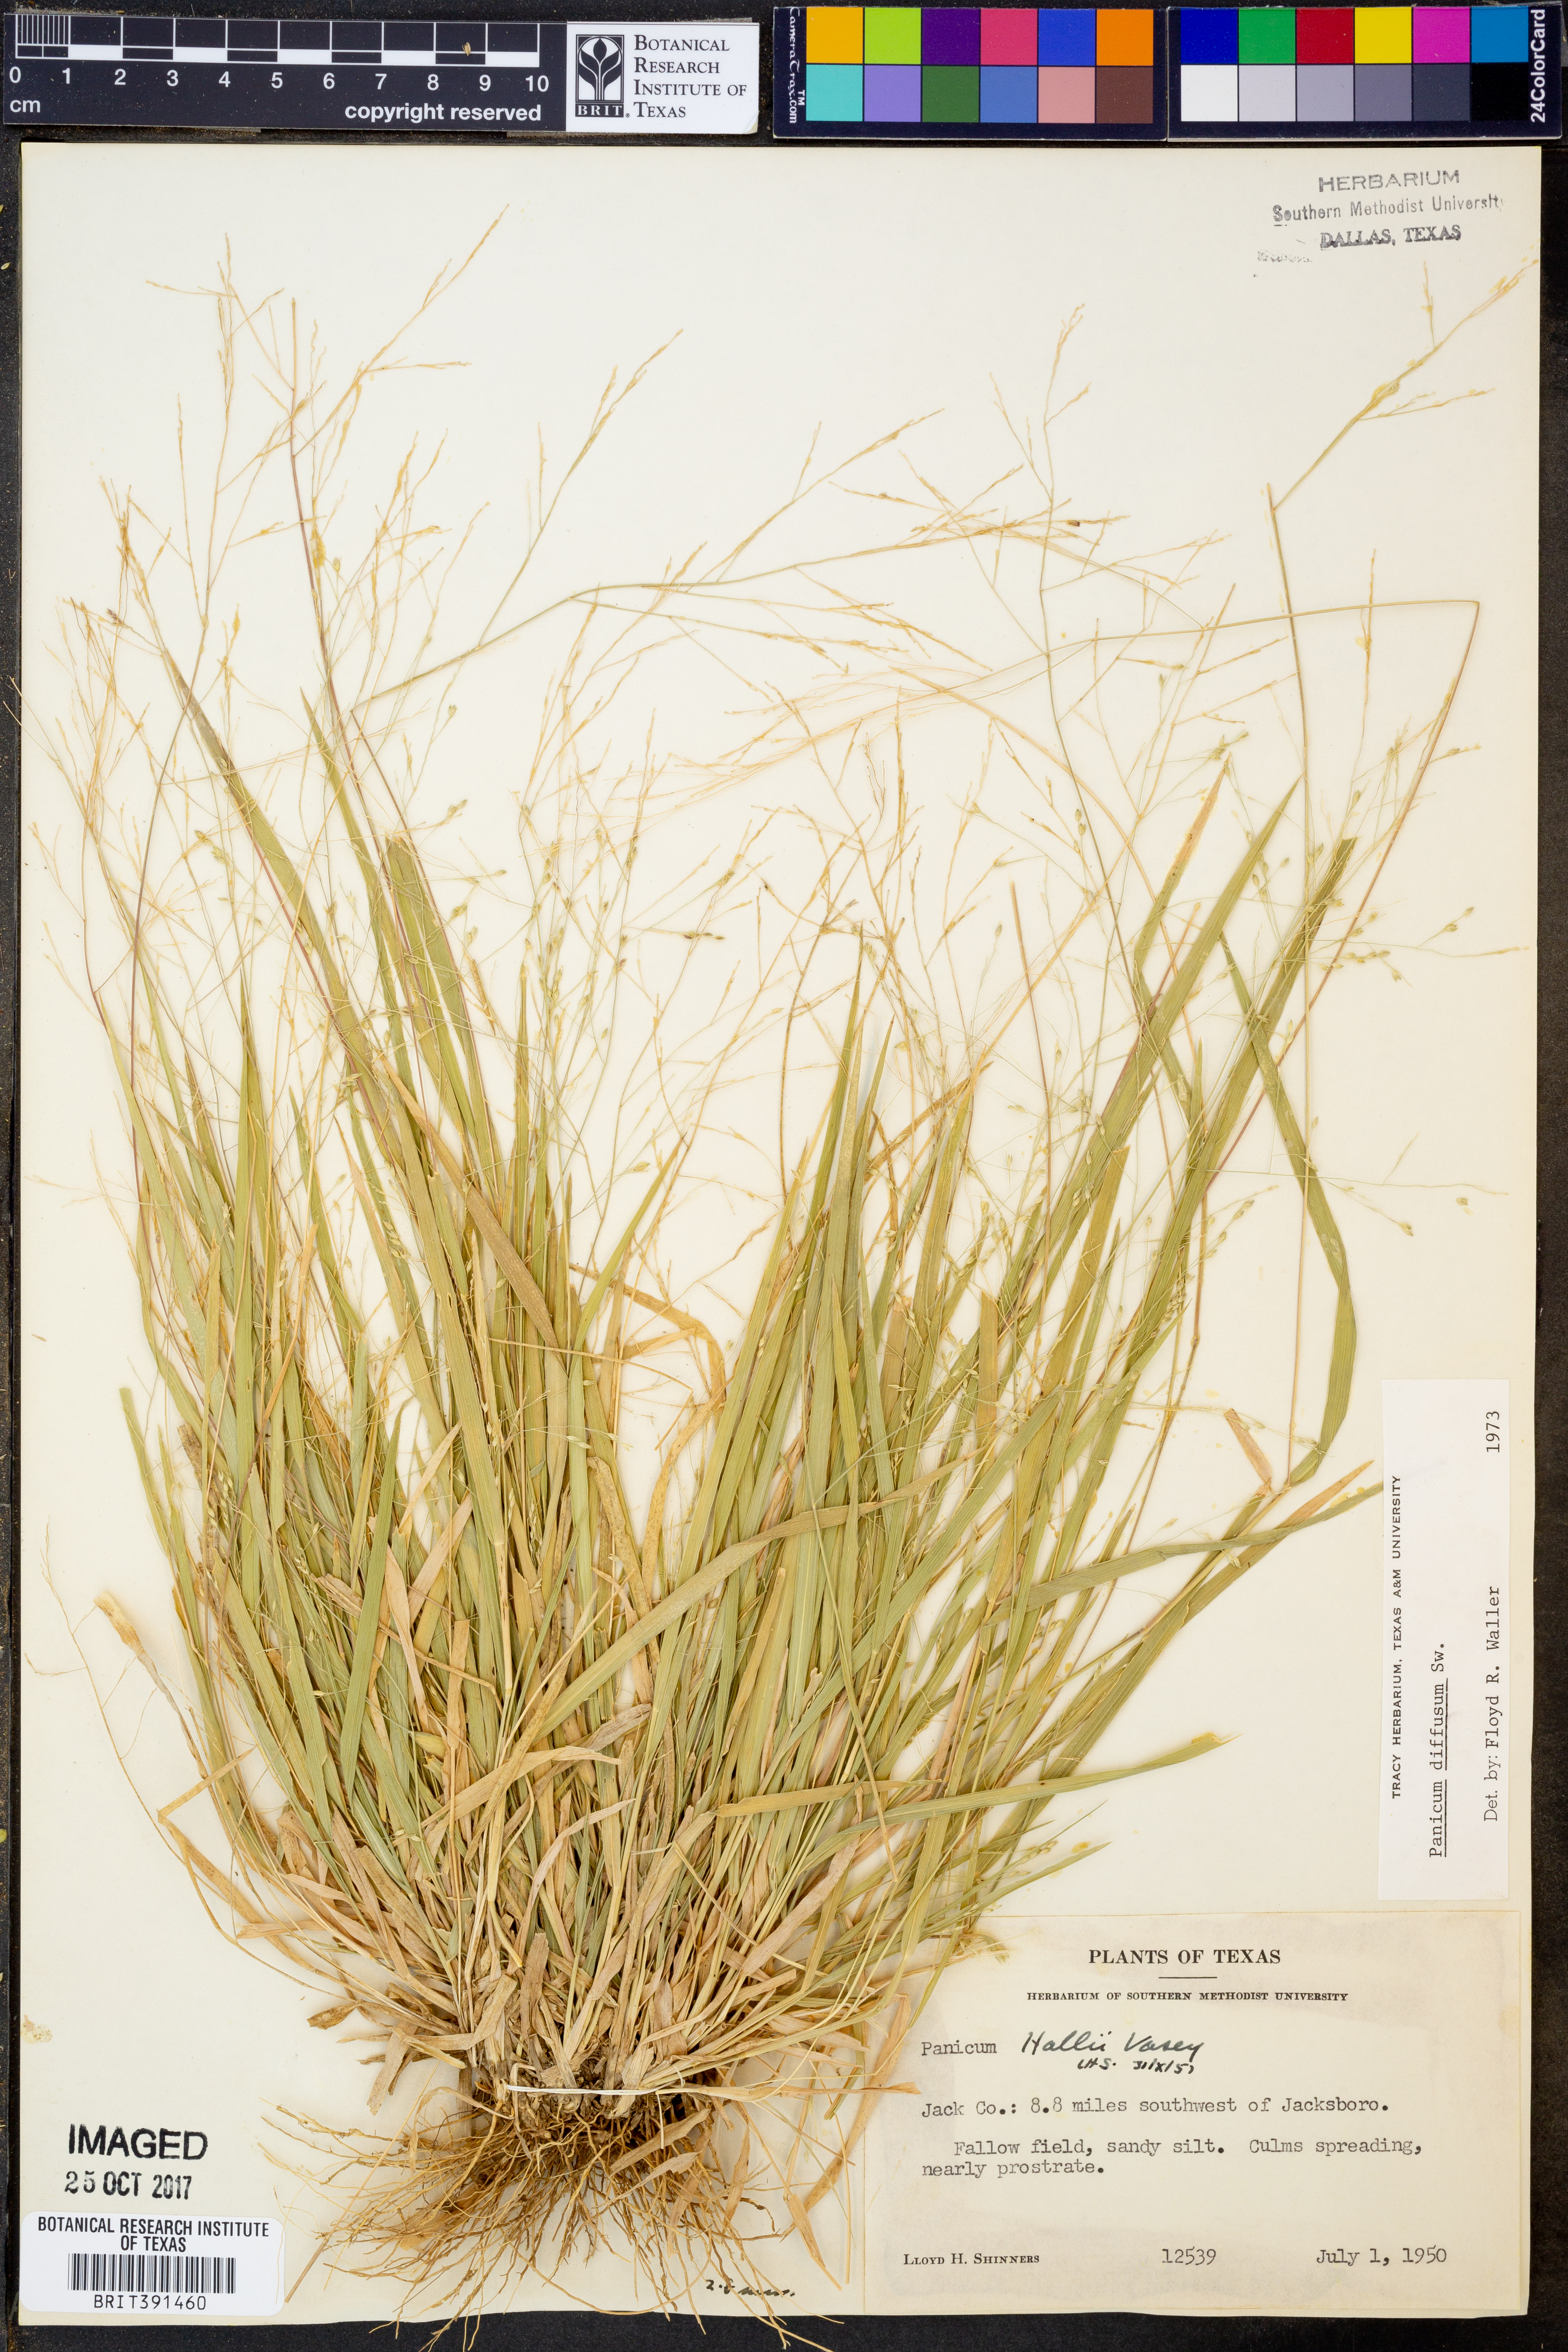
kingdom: Plantae
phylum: Tracheophyta
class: Liliopsida
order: Poales
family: Poaceae
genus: Panicum
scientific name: Panicum diffusum
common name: Spreading panicgrass
